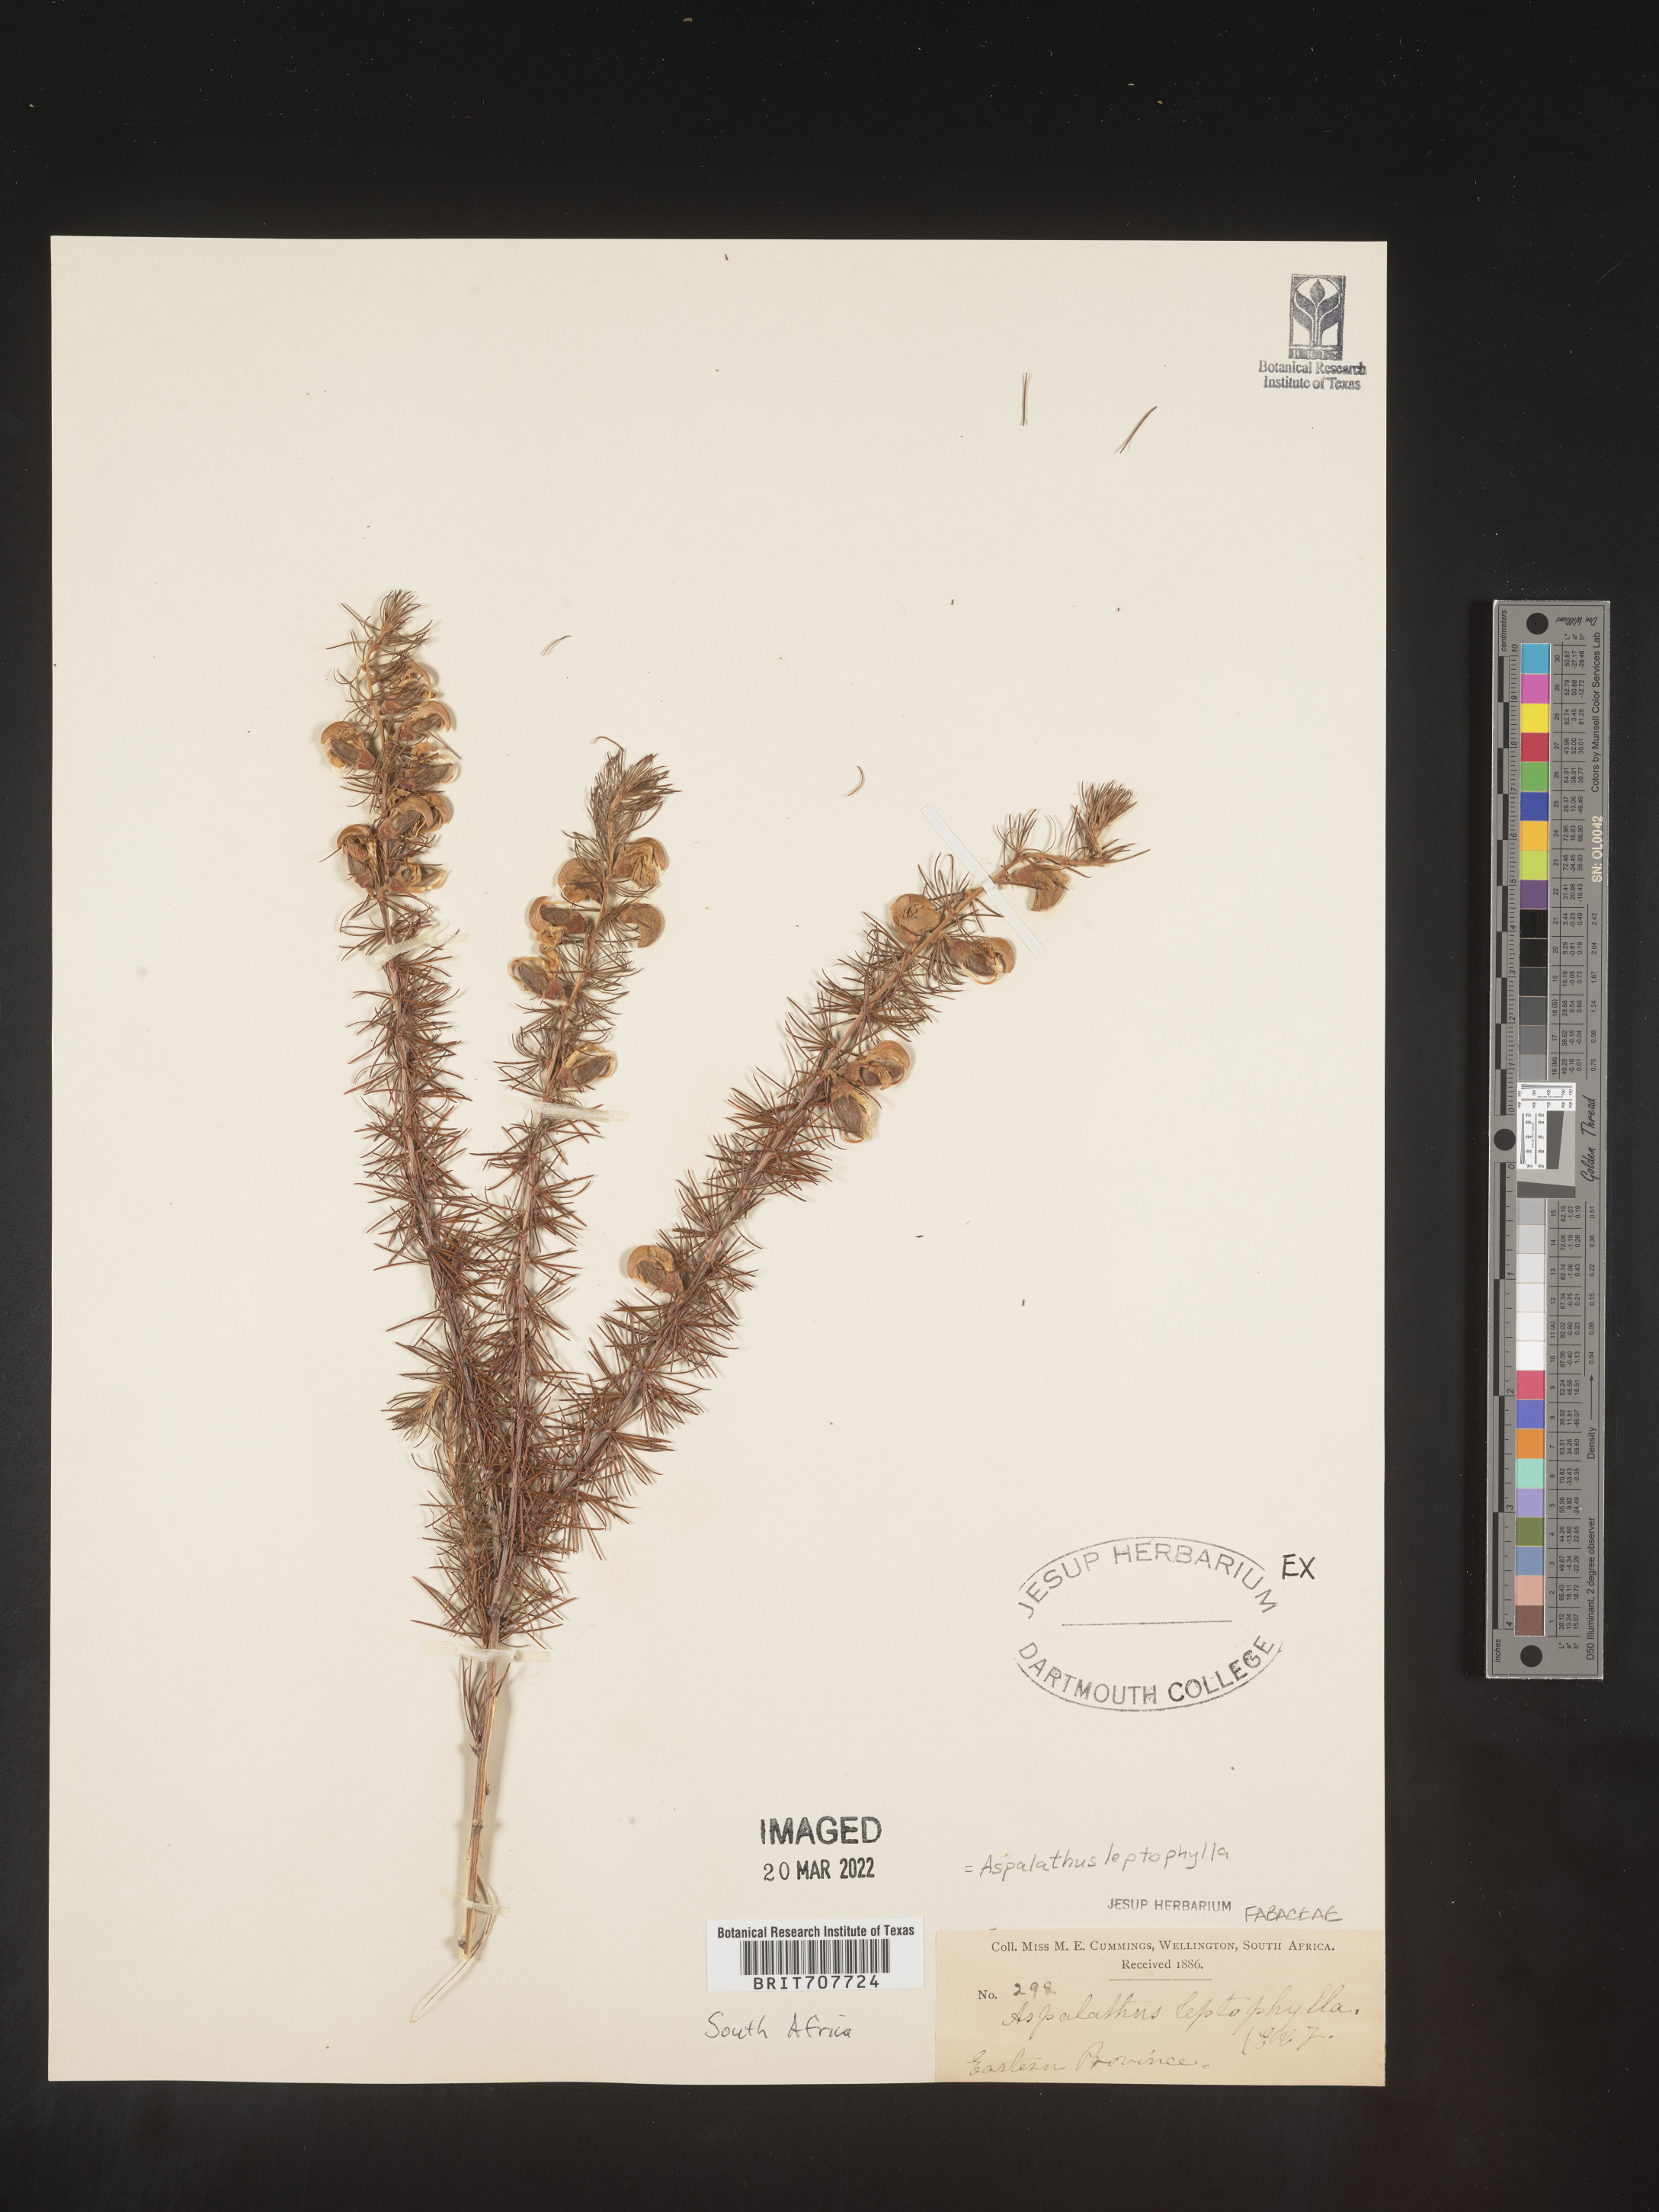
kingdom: Plantae
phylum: Tracheophyta
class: Magnoliopsida
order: Fabales
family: Fabaceae
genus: Aspalathus
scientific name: Aspalathus
